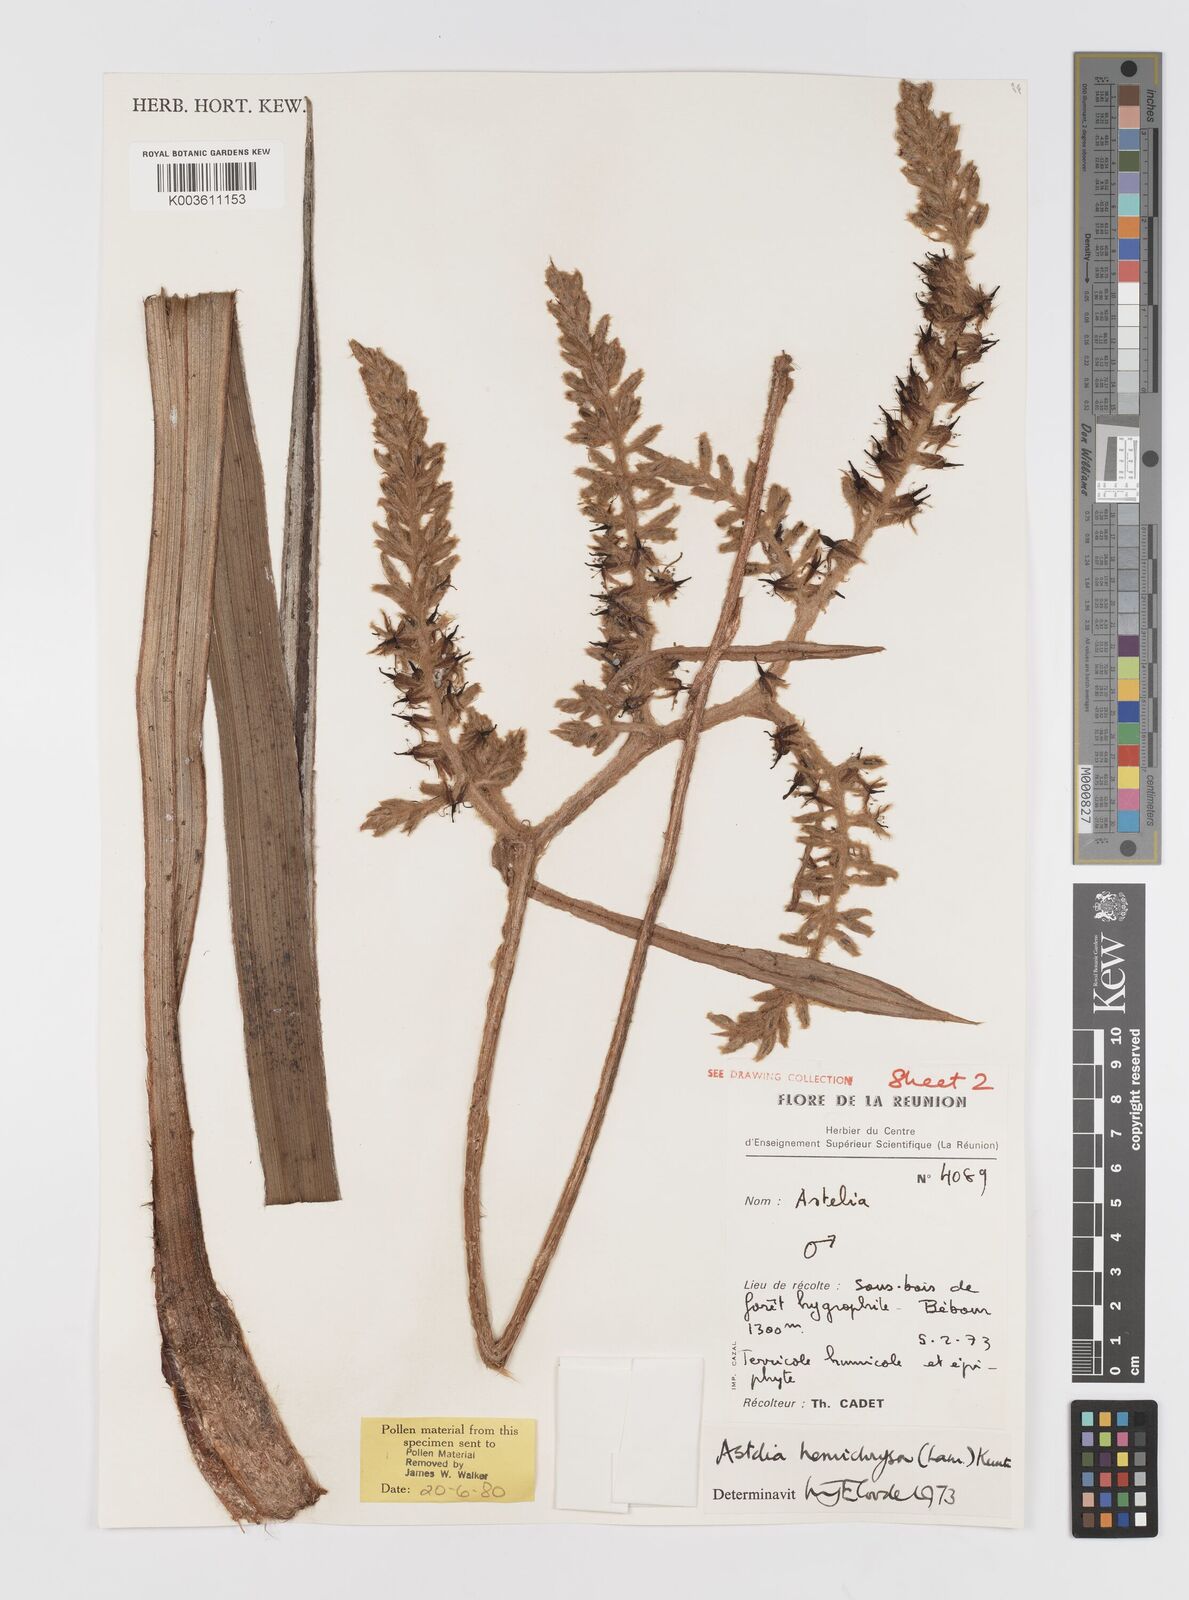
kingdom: Plantae
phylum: Tracheophyta
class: Liliopsida
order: Asparagales
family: Asteliaceae
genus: Astelia
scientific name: Astelia hemichrysa
